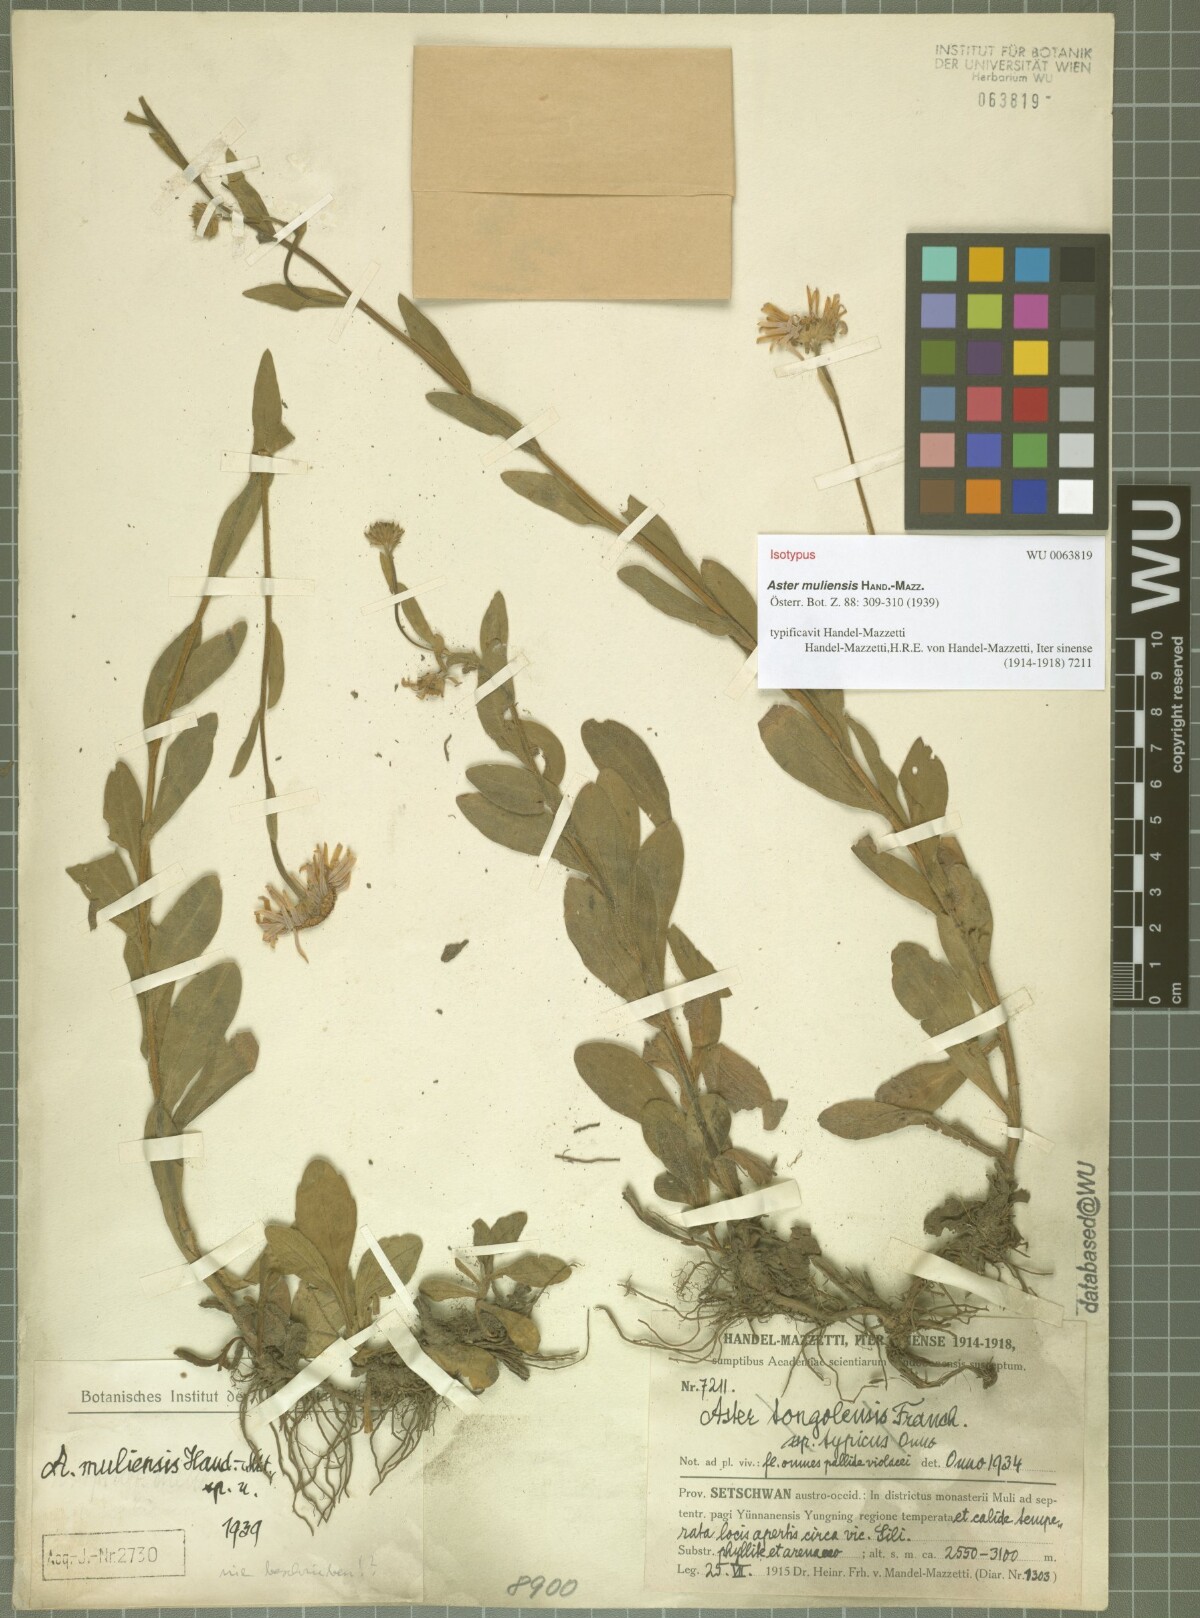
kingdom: Plantae
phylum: Tracheophyta
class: Magnoliopsida
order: Asterales
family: Asteraceae
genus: Aster
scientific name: Aster muliensis
